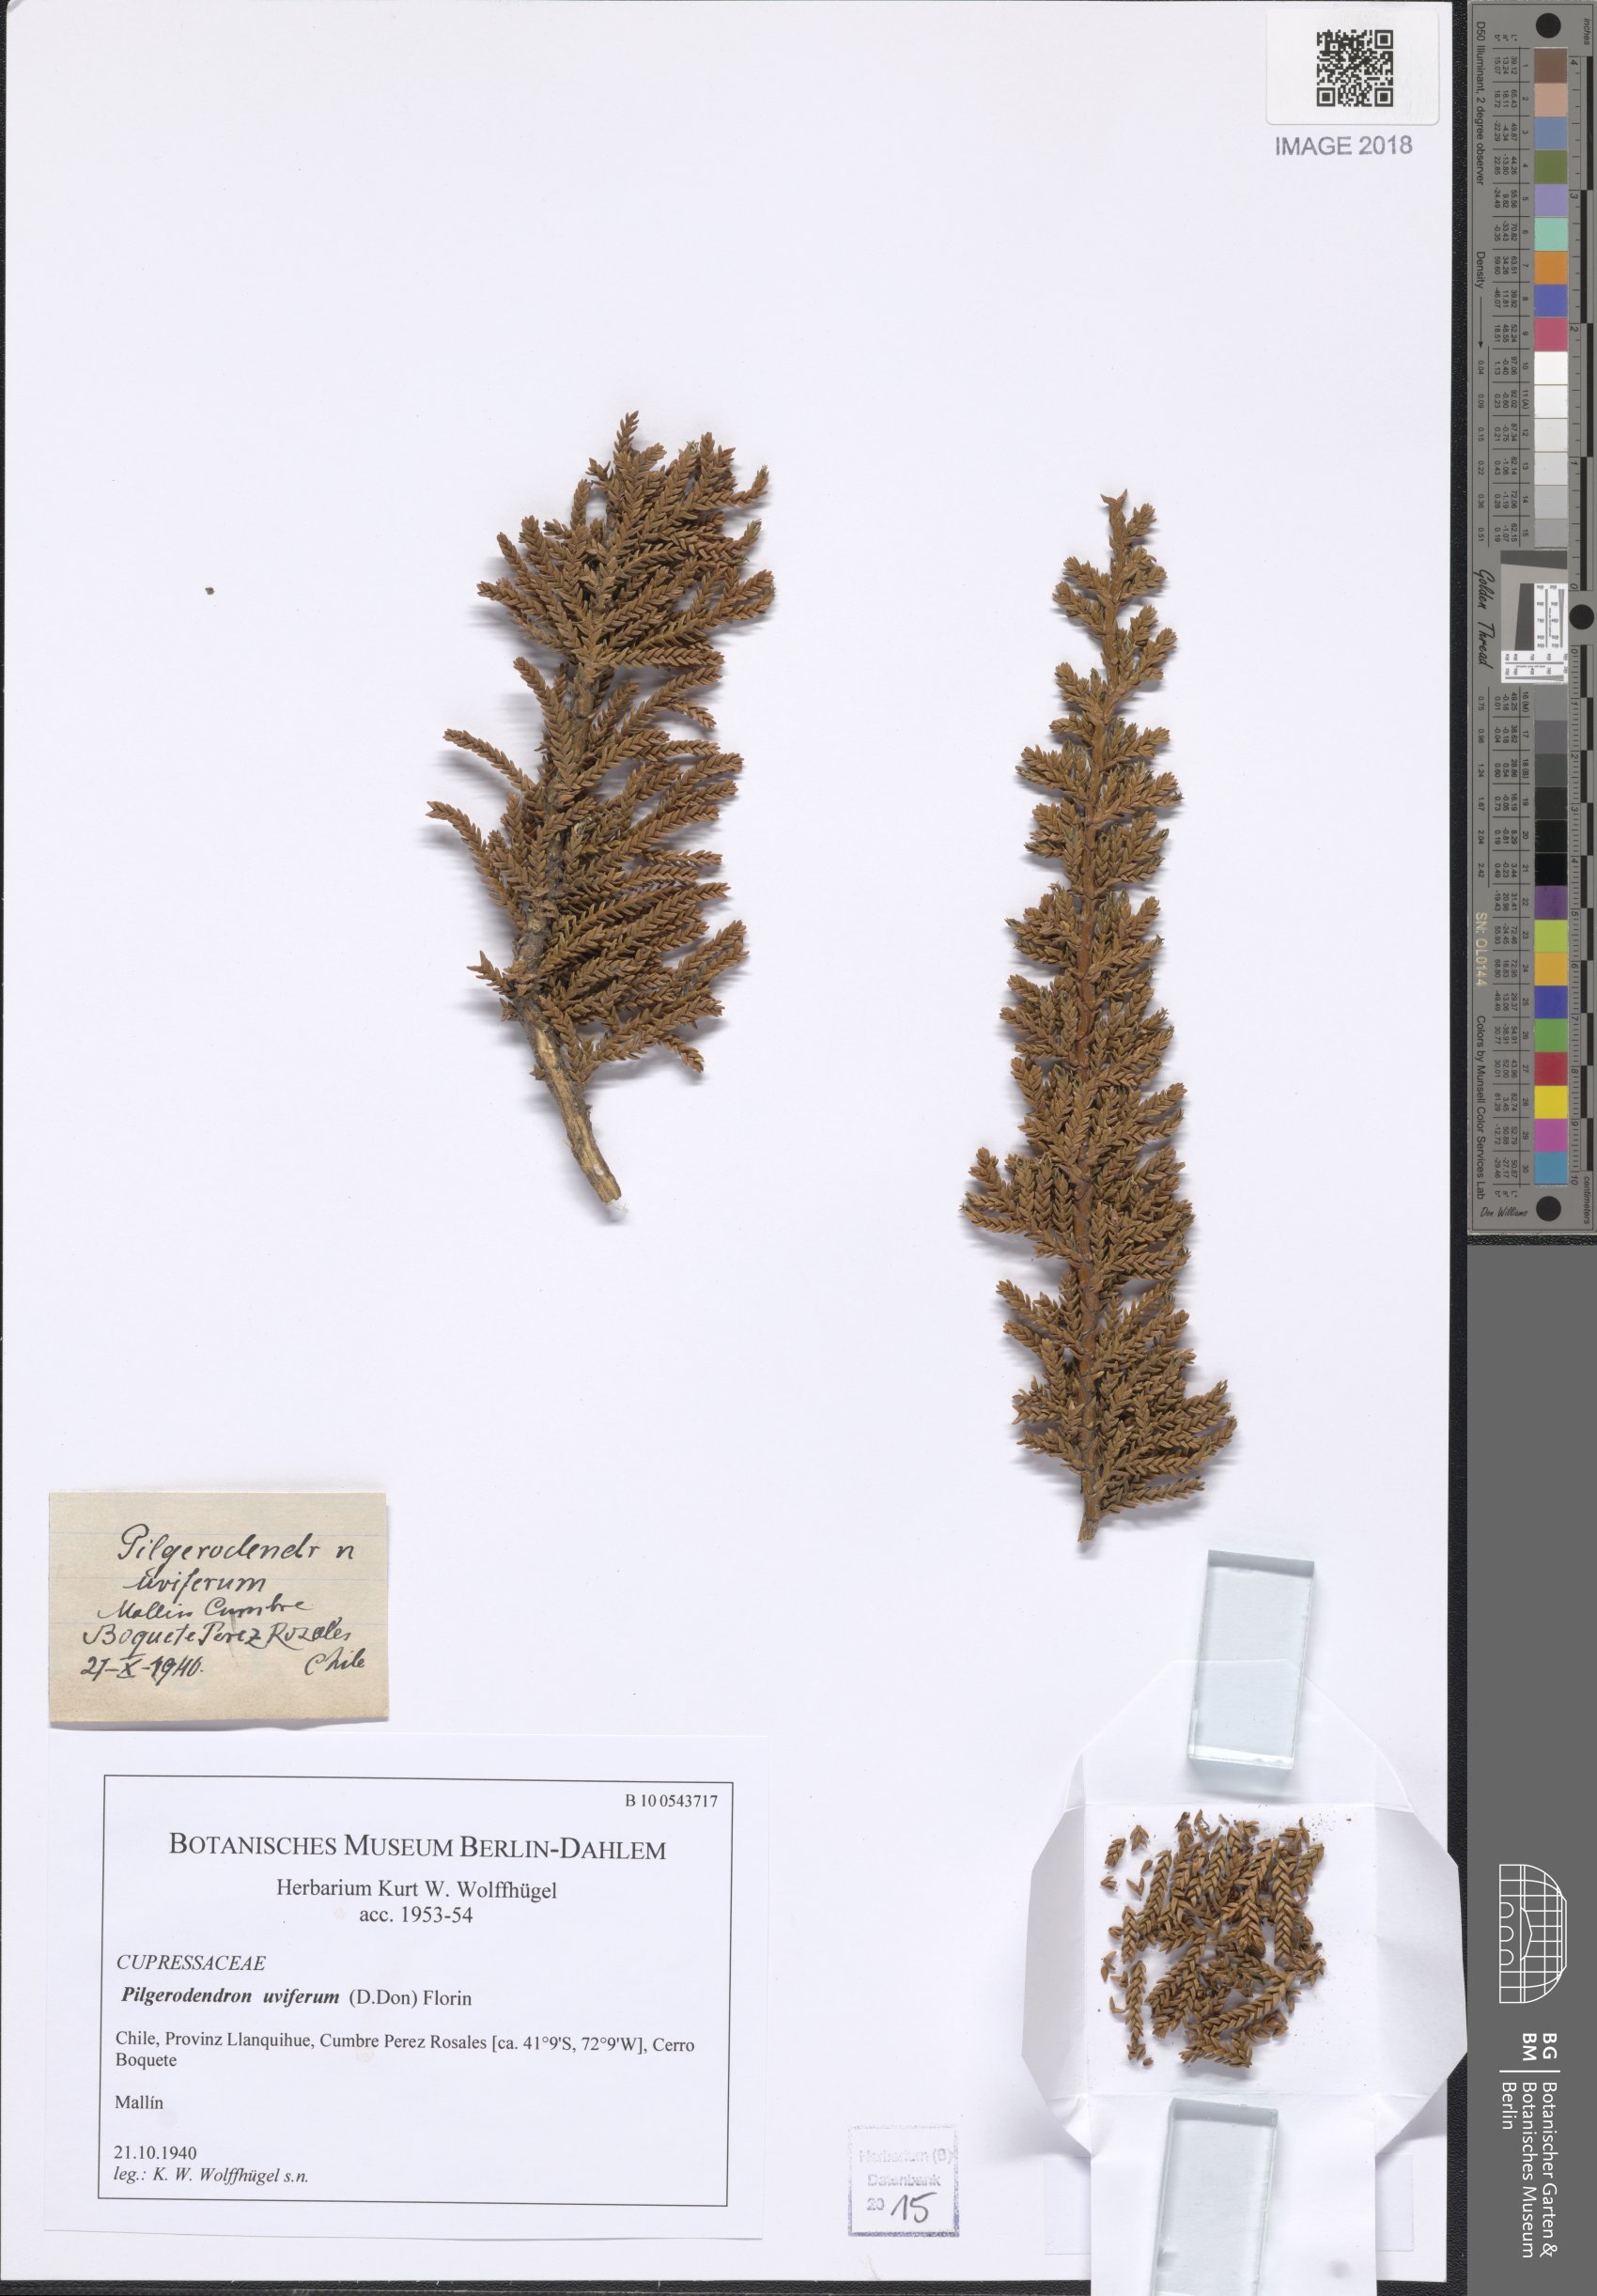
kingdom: Plantae
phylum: Tracheophyta
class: Pinopsida
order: Pinales
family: Cupressaceae
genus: Pilgerodendron
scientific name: Pilgerodendron uviferum
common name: Guaitecas cypress
